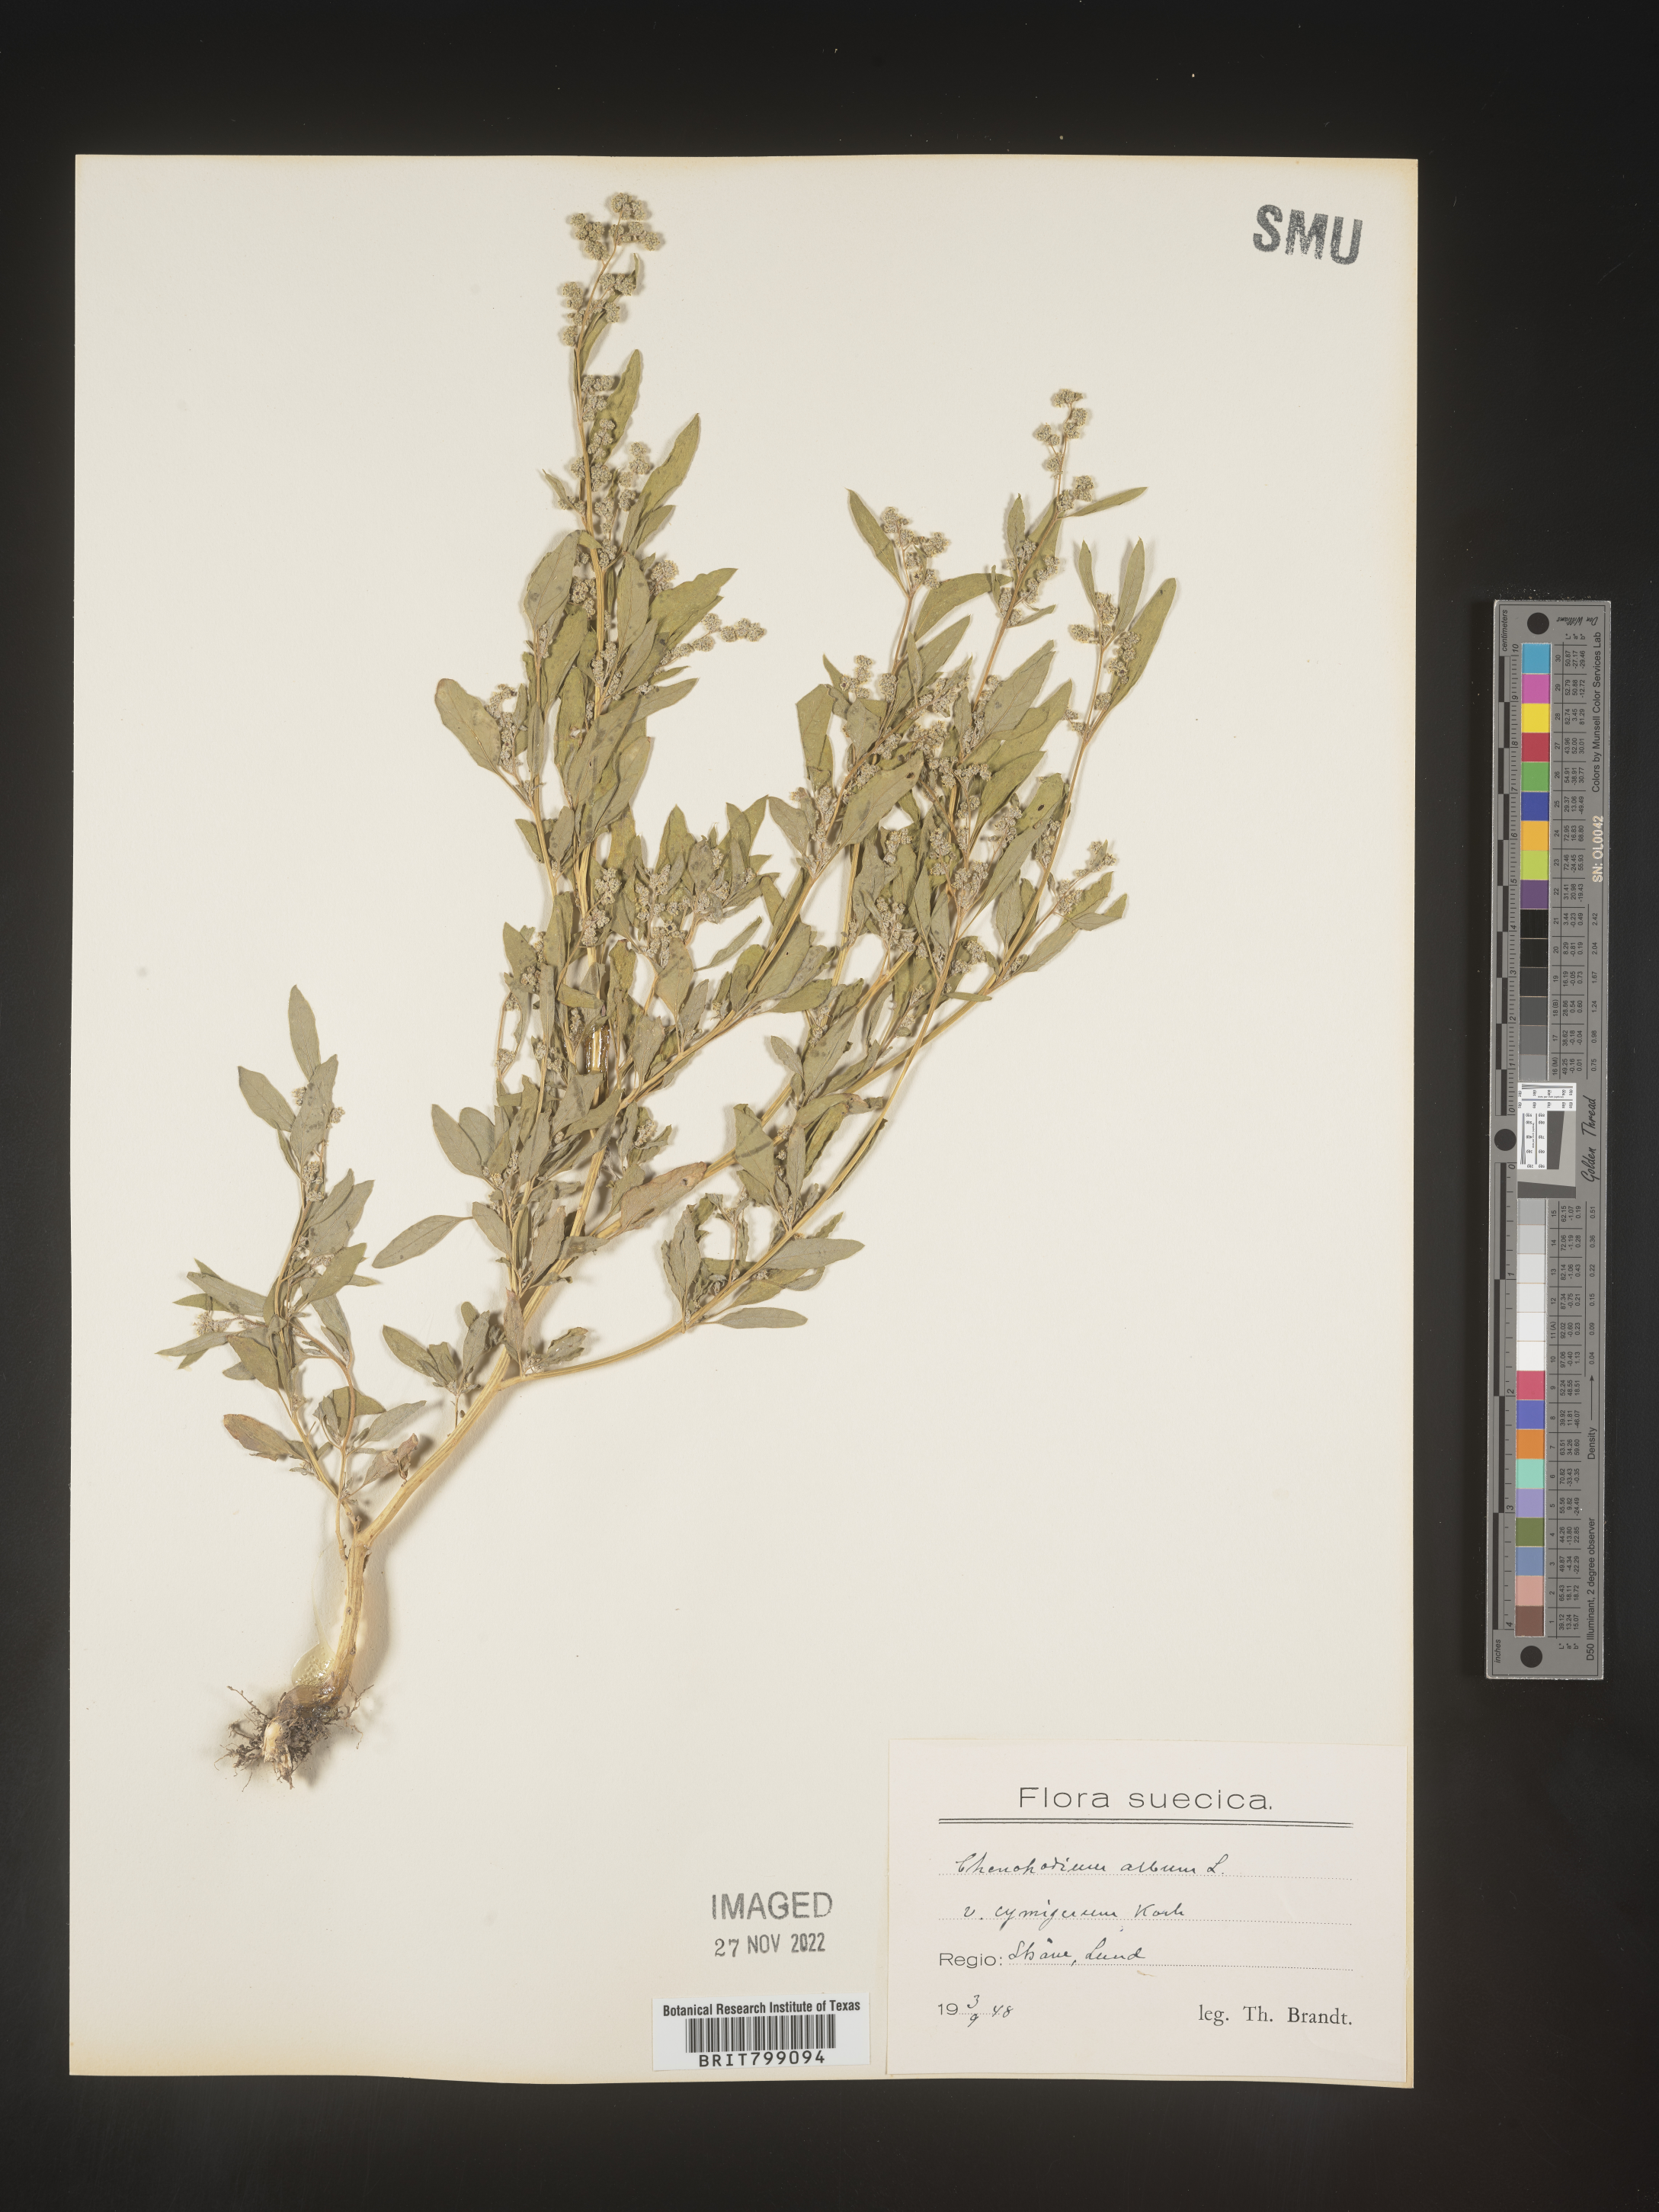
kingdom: Plantae
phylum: Tracheophyta
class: Magnoliopsida
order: Caryophyllales
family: Amaranthaceae
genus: Chenopodium
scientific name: Chenopodium
